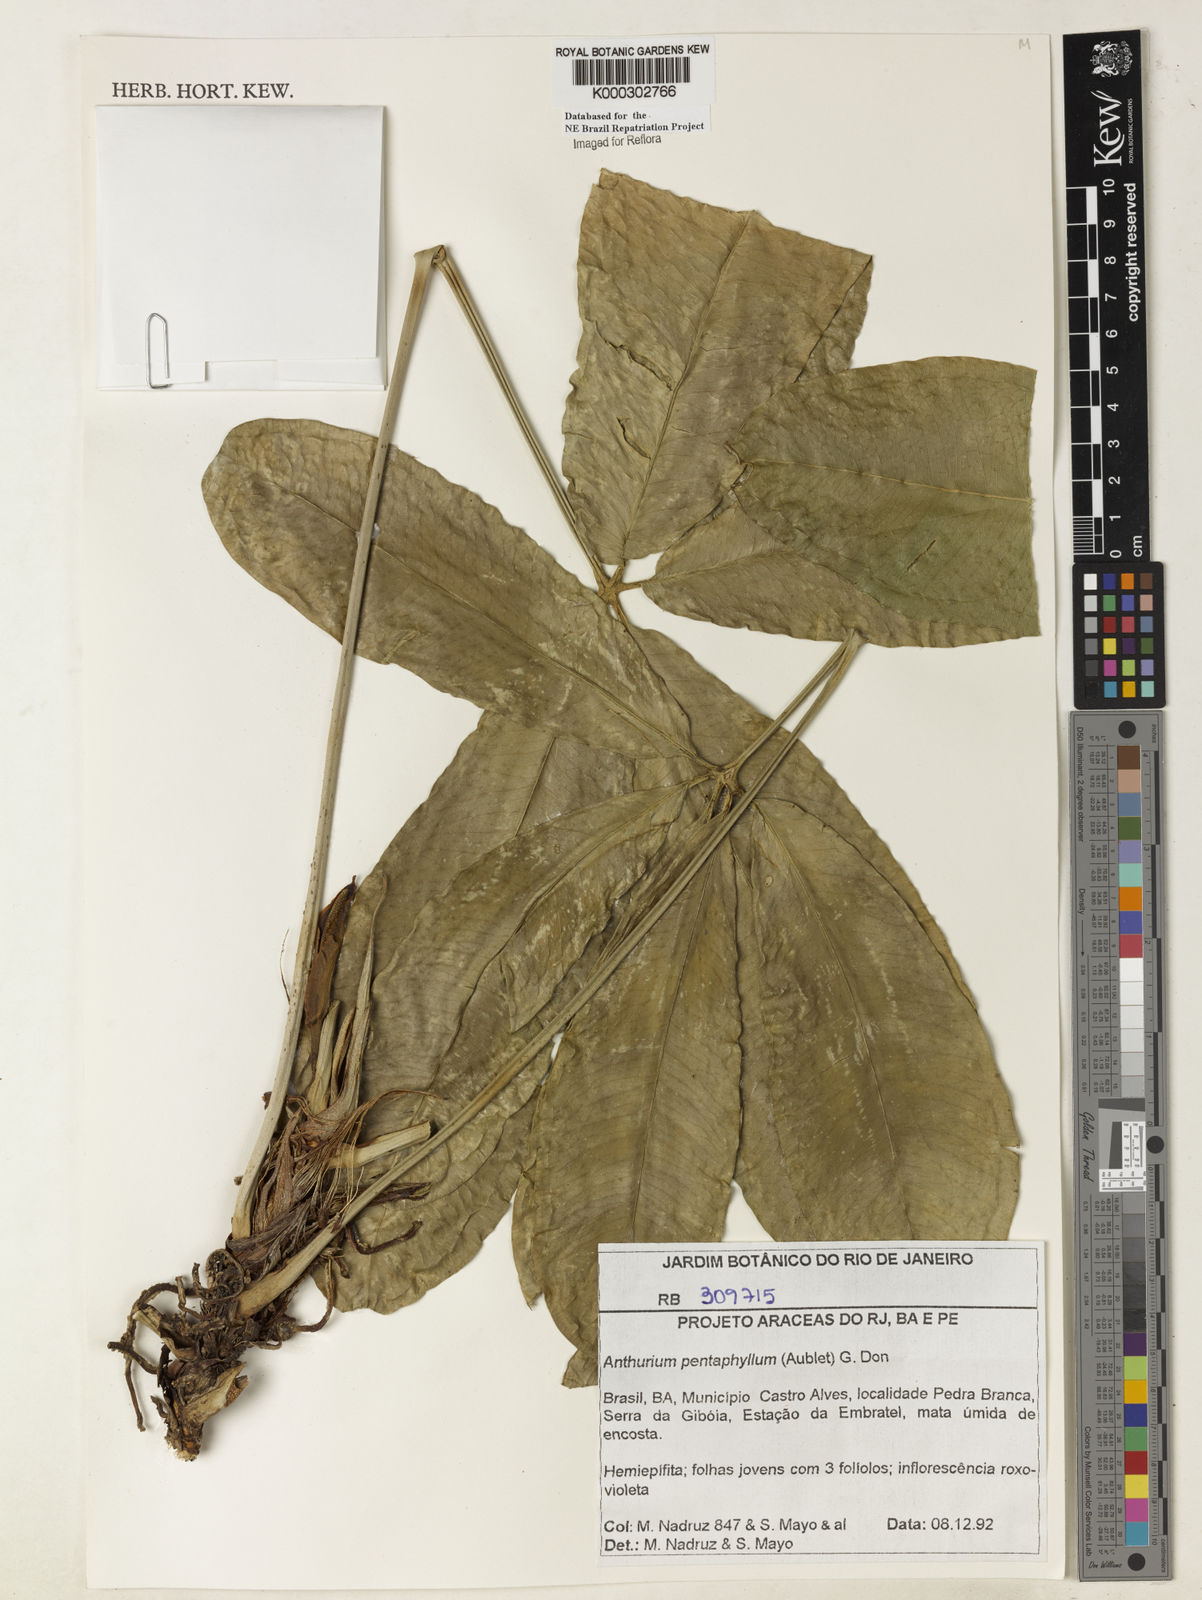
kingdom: Plantae
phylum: Tracheophyta
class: Liliopsida
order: Alismatales
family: Araceae
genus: Anthurium
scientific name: Anthurium pentaphyllum
